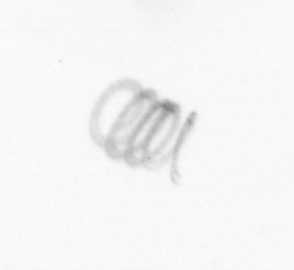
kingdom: Chromista
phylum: Ochrophyta
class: Bacillariophyceae
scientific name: Bacillariophyceae
